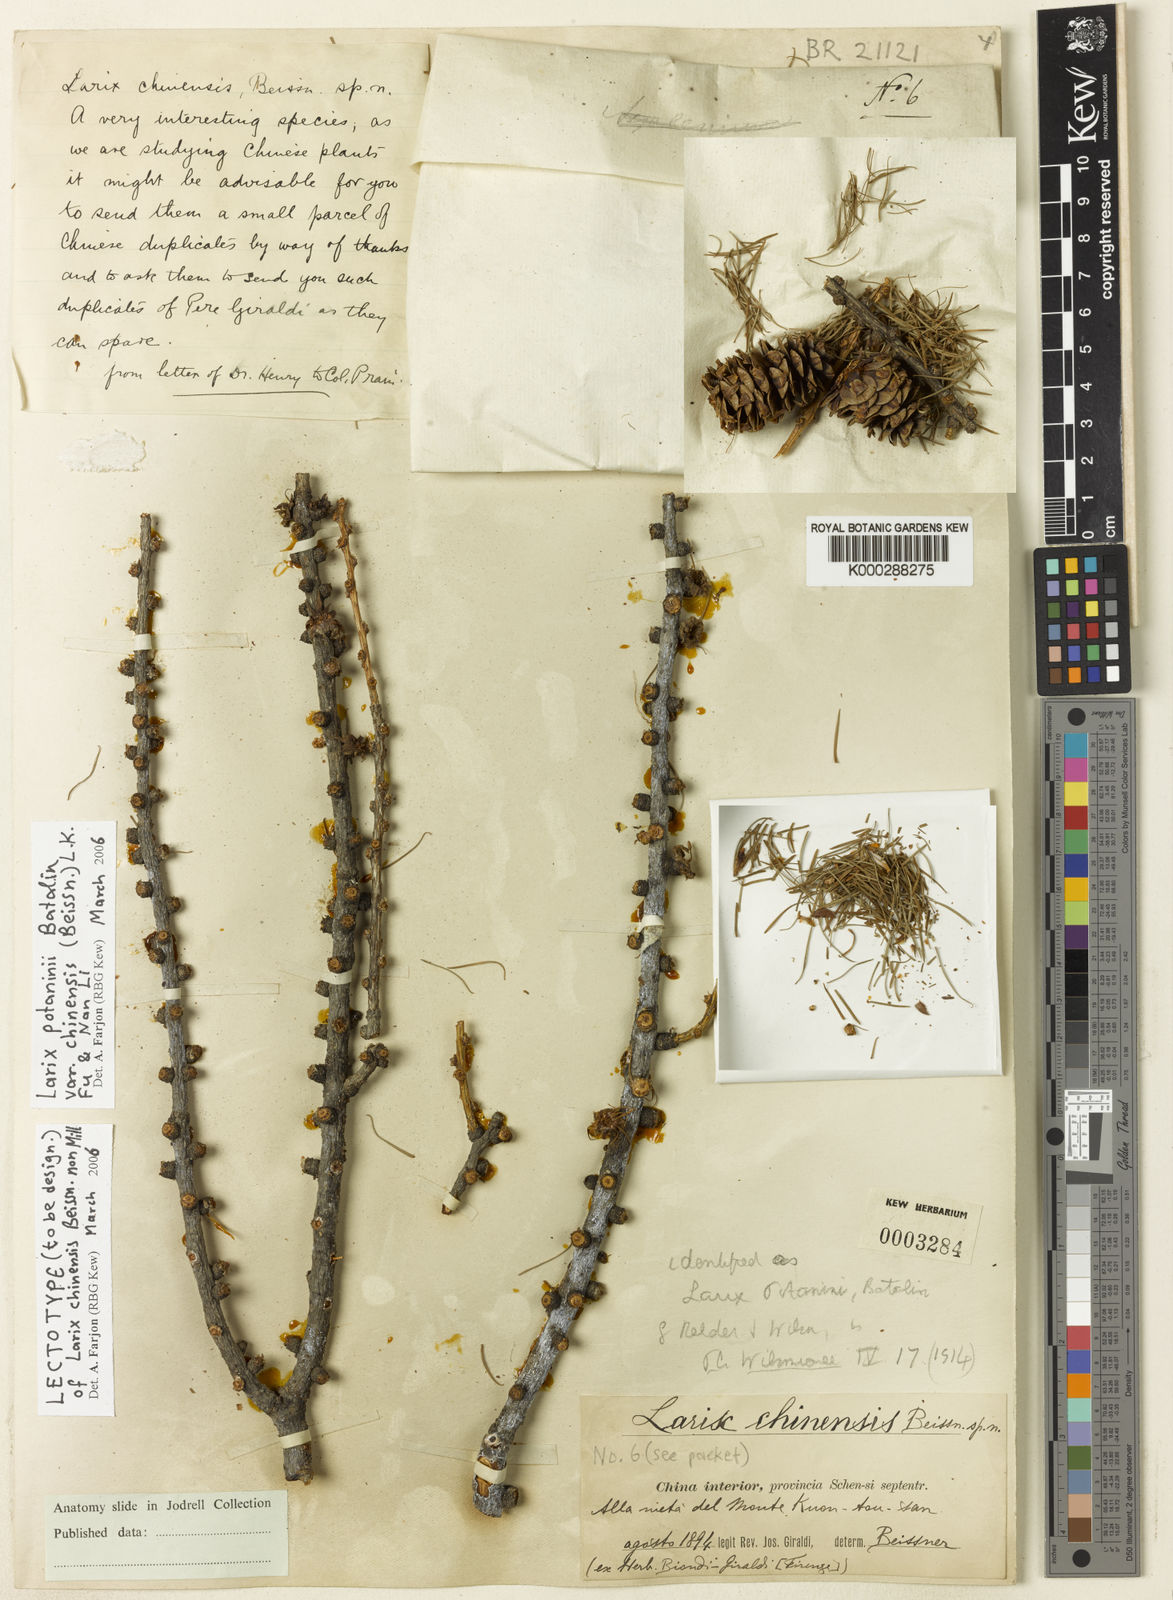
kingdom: Plantae
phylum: Tracheophyta
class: Pinopsida
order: Pinales
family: Pinaceae
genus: Larix
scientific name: Larix potaninii
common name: Chinese larch
